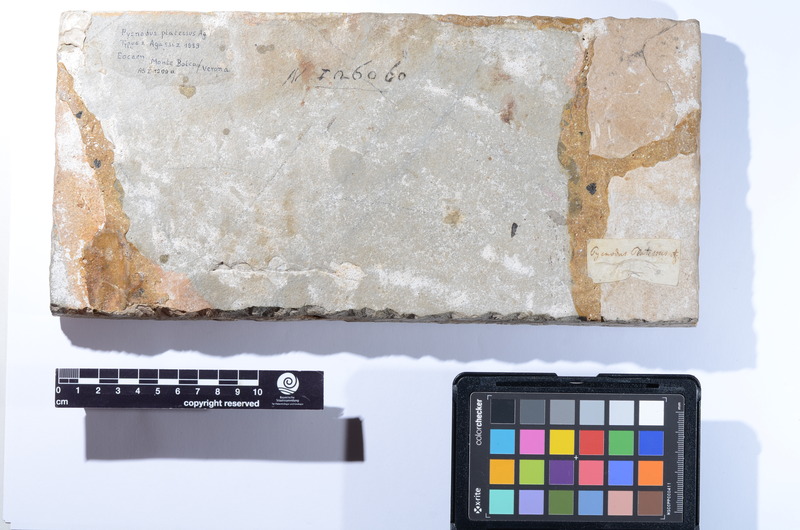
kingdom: Animalia
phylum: Chordata
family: Pycnodontidae
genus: Pycnodus
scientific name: Pycnodus Zeus platessus
